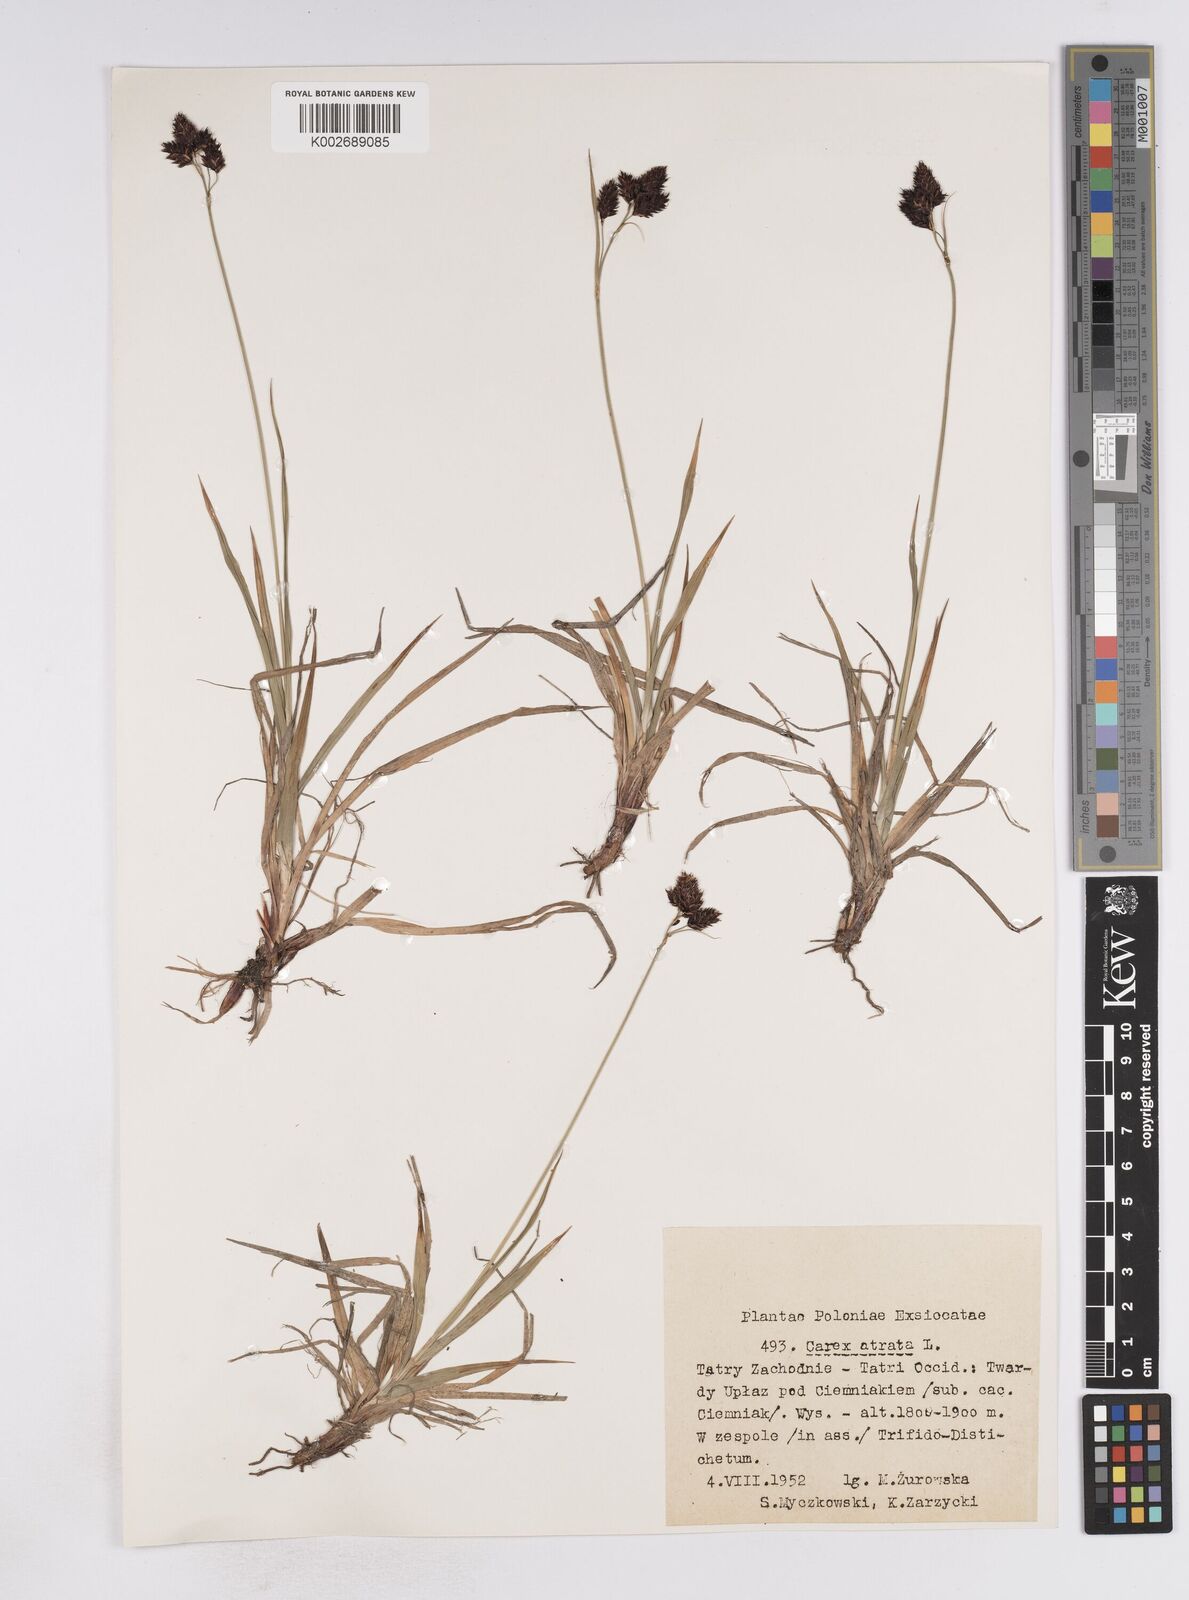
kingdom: Plantae
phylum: Tracheophyta
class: Liliopsida
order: Poales
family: Cyperaceae
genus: Carex
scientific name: Carex atrata
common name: Black alpine sedge
